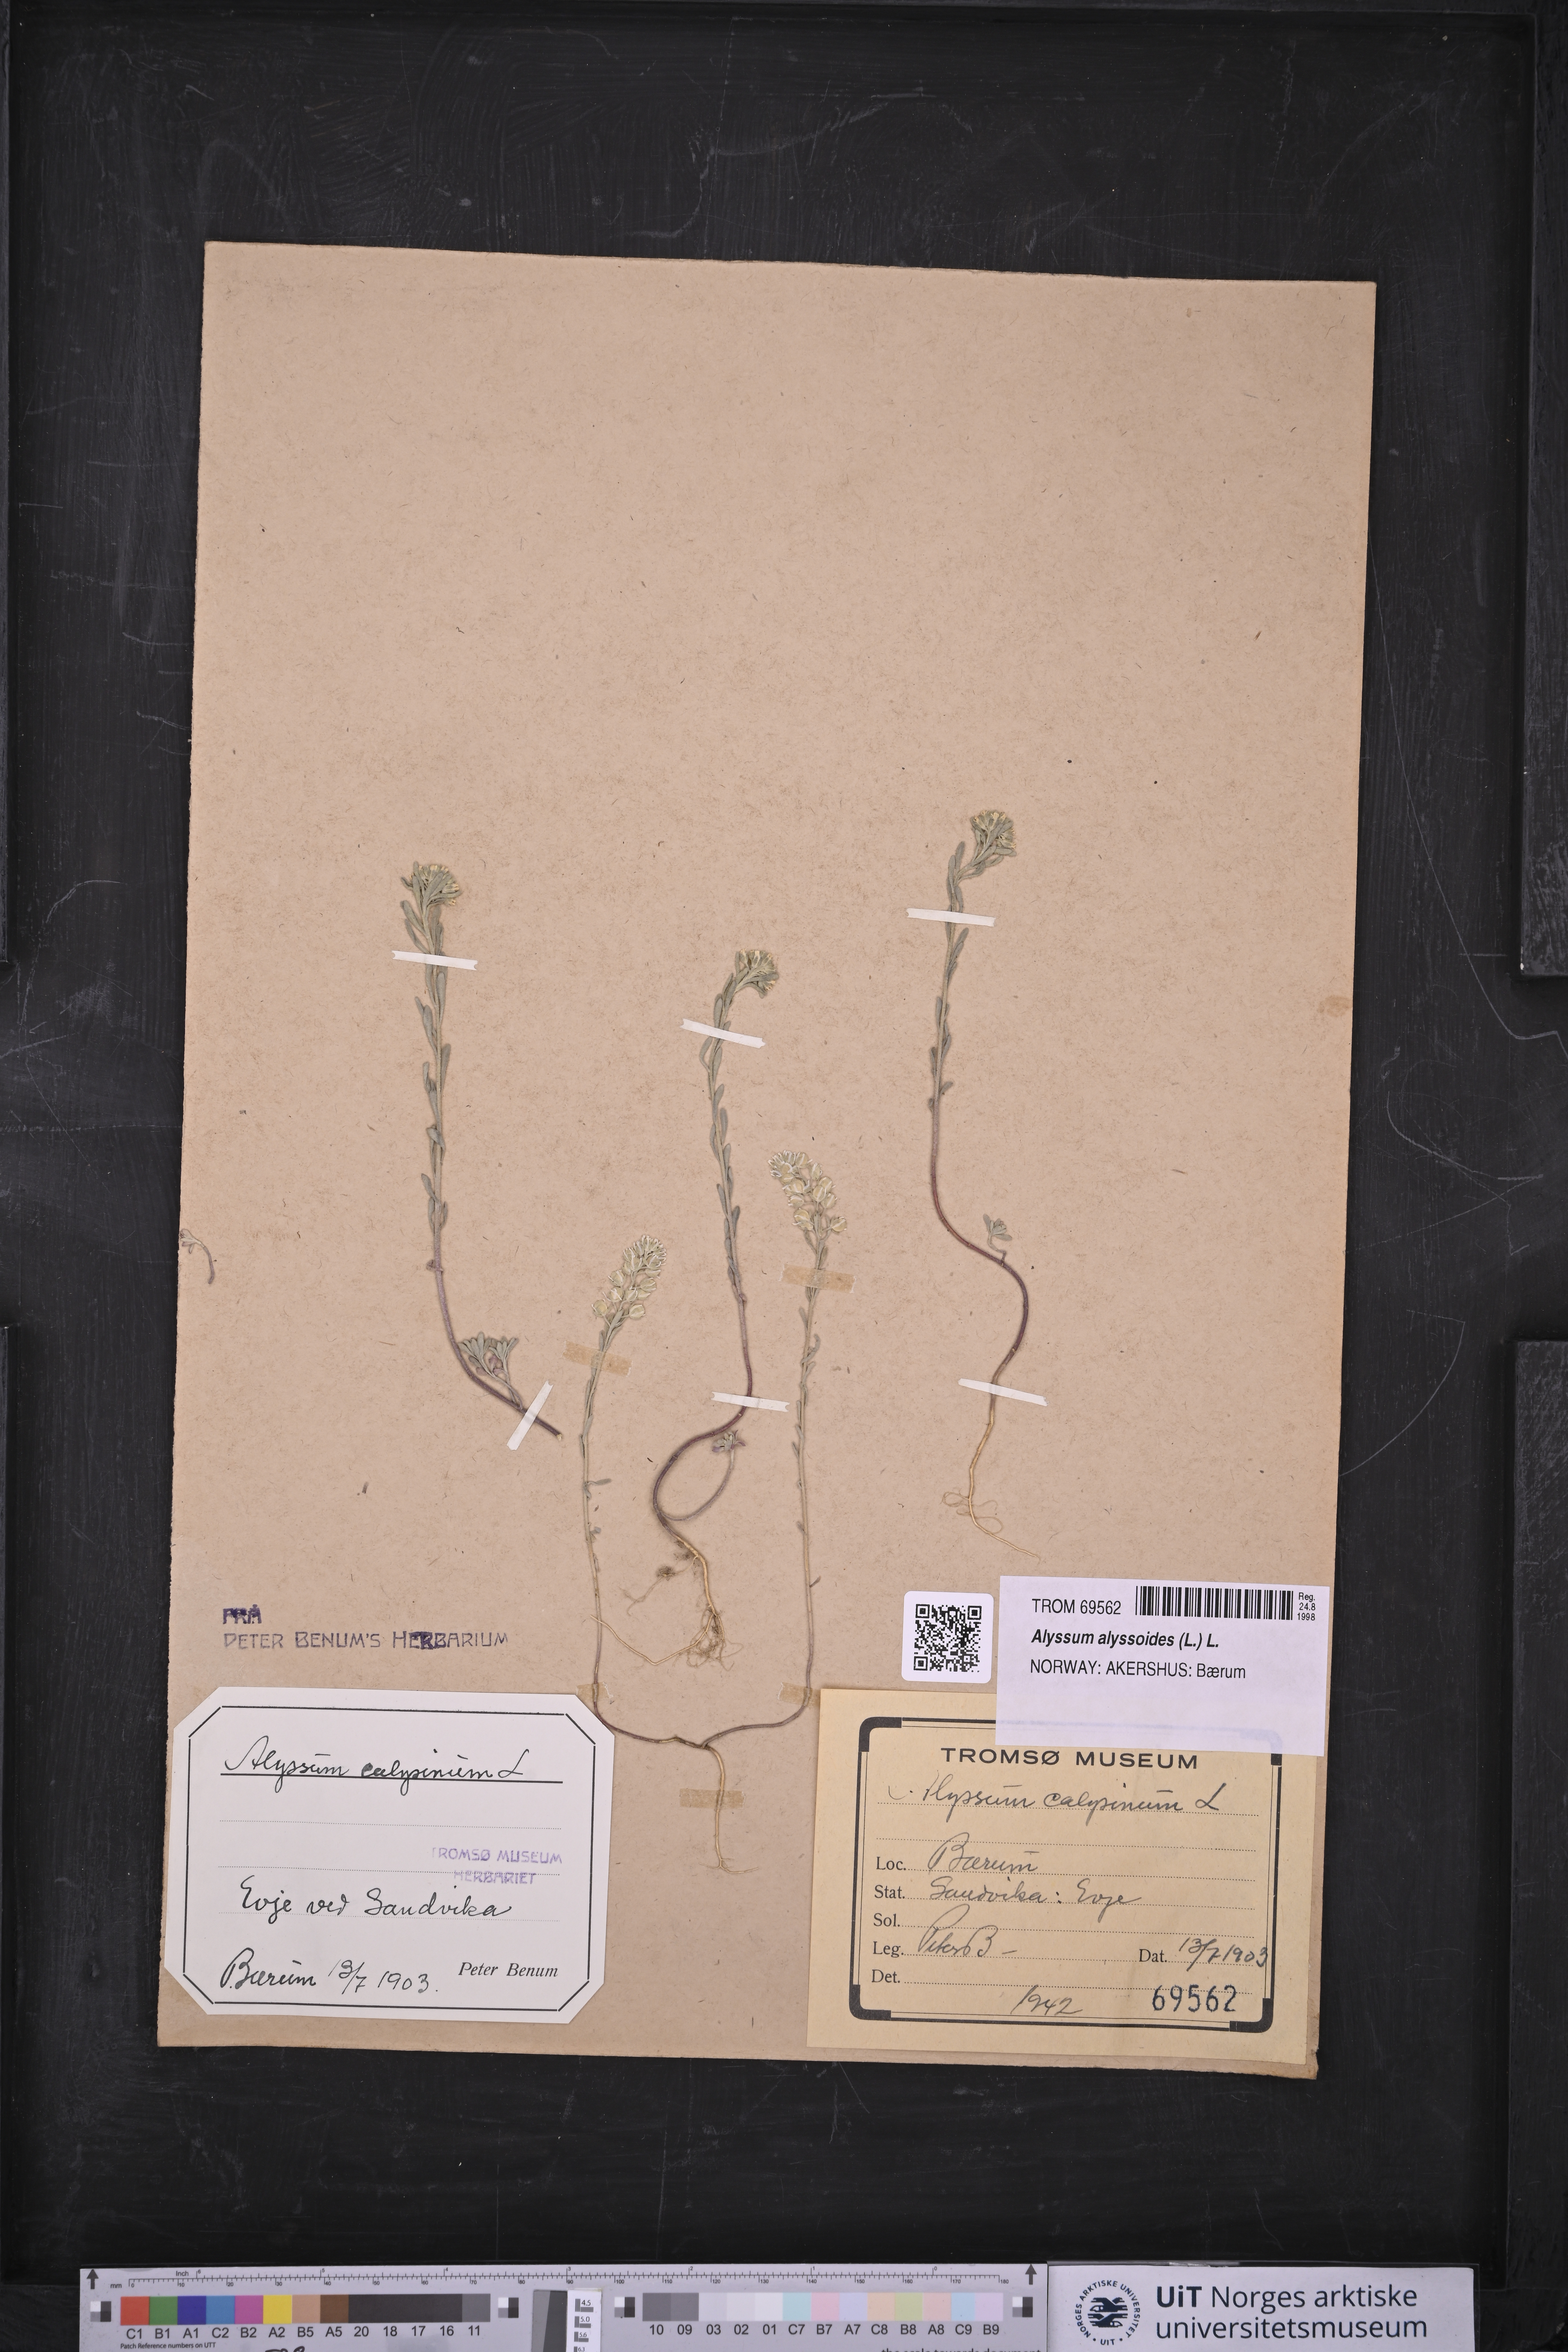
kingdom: Plantae
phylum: Tracheophyta
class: Magnoliopsida
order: Brassicales
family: Brassicaceae
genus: Alyssum
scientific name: Alyssum alyssoides
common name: Small alison
